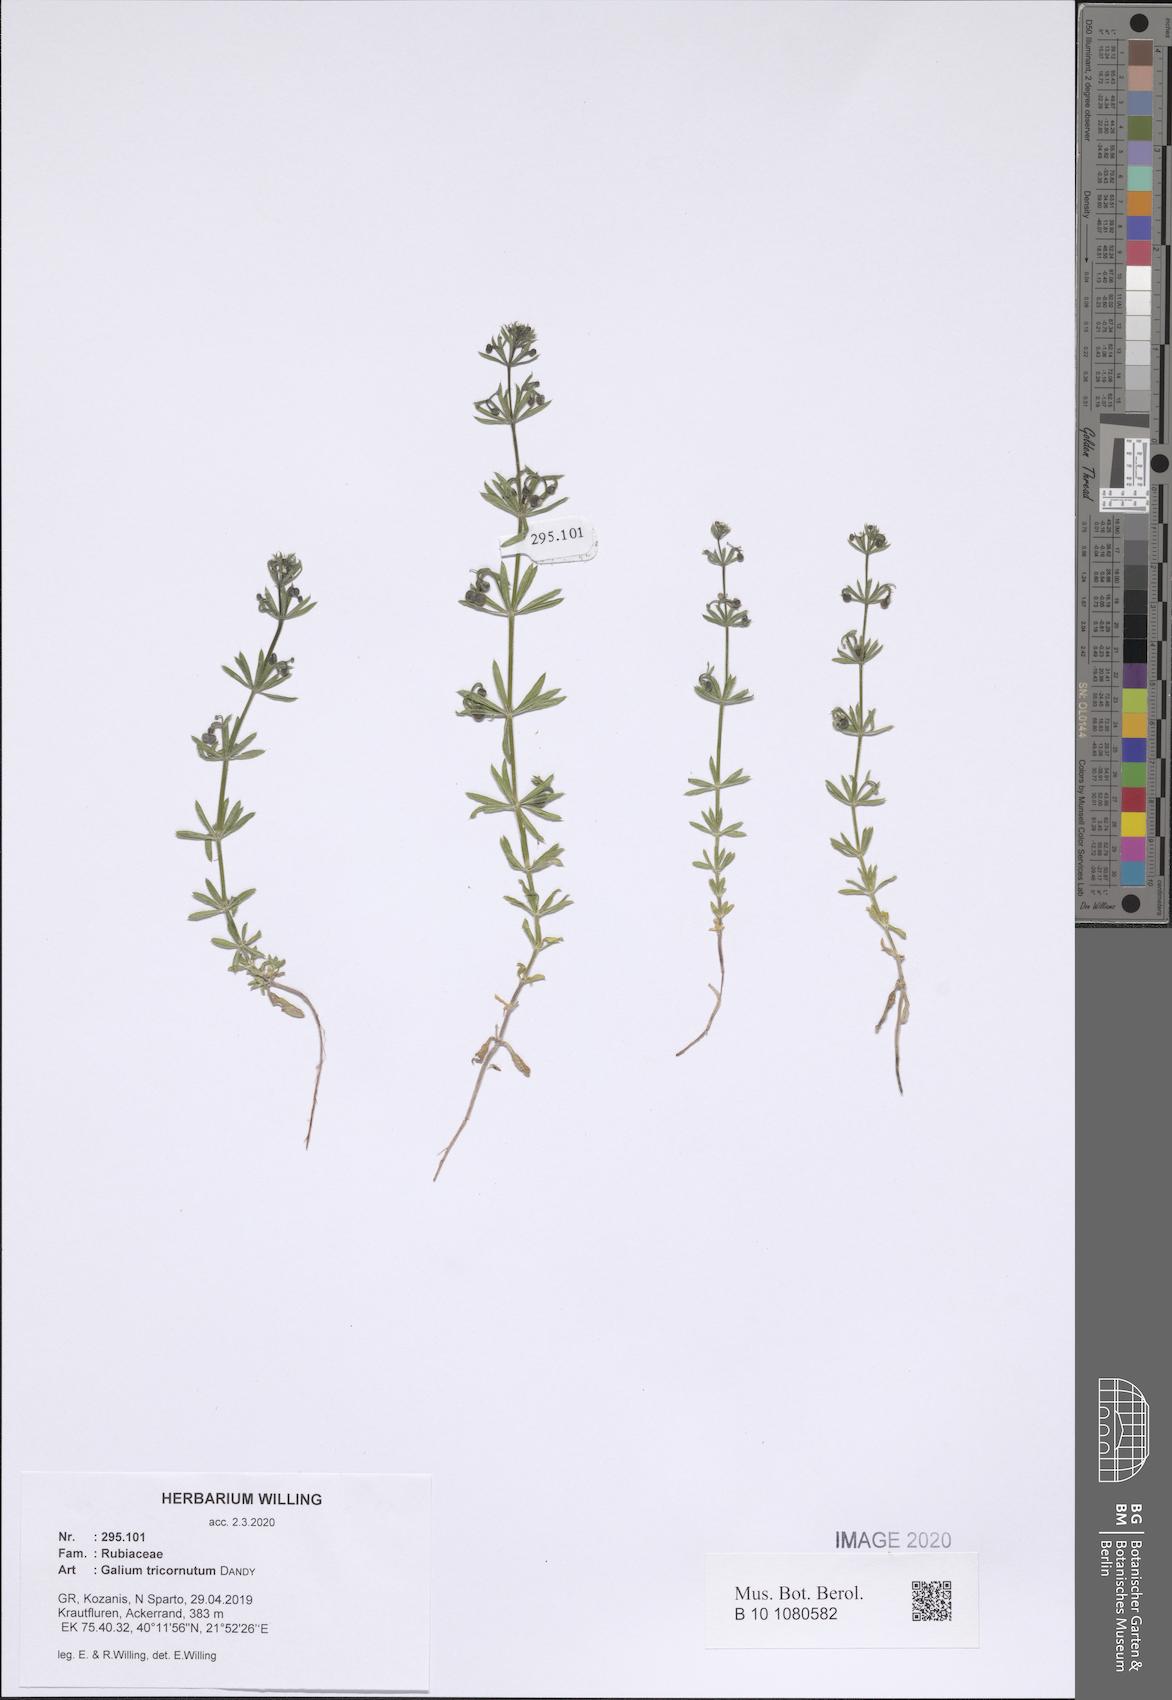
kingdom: Plantae
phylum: Tracheophyta
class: Magnoliopsida
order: Gentianales
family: Rubiaceae
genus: Galium
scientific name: Galium tricornutum
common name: Corn cleavers
